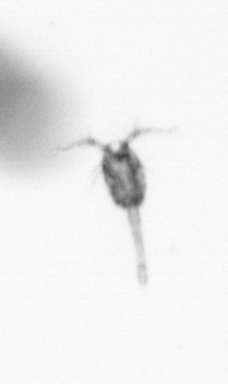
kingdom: Animalia
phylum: Arthropoda
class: Copepoda
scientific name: Copepoda
